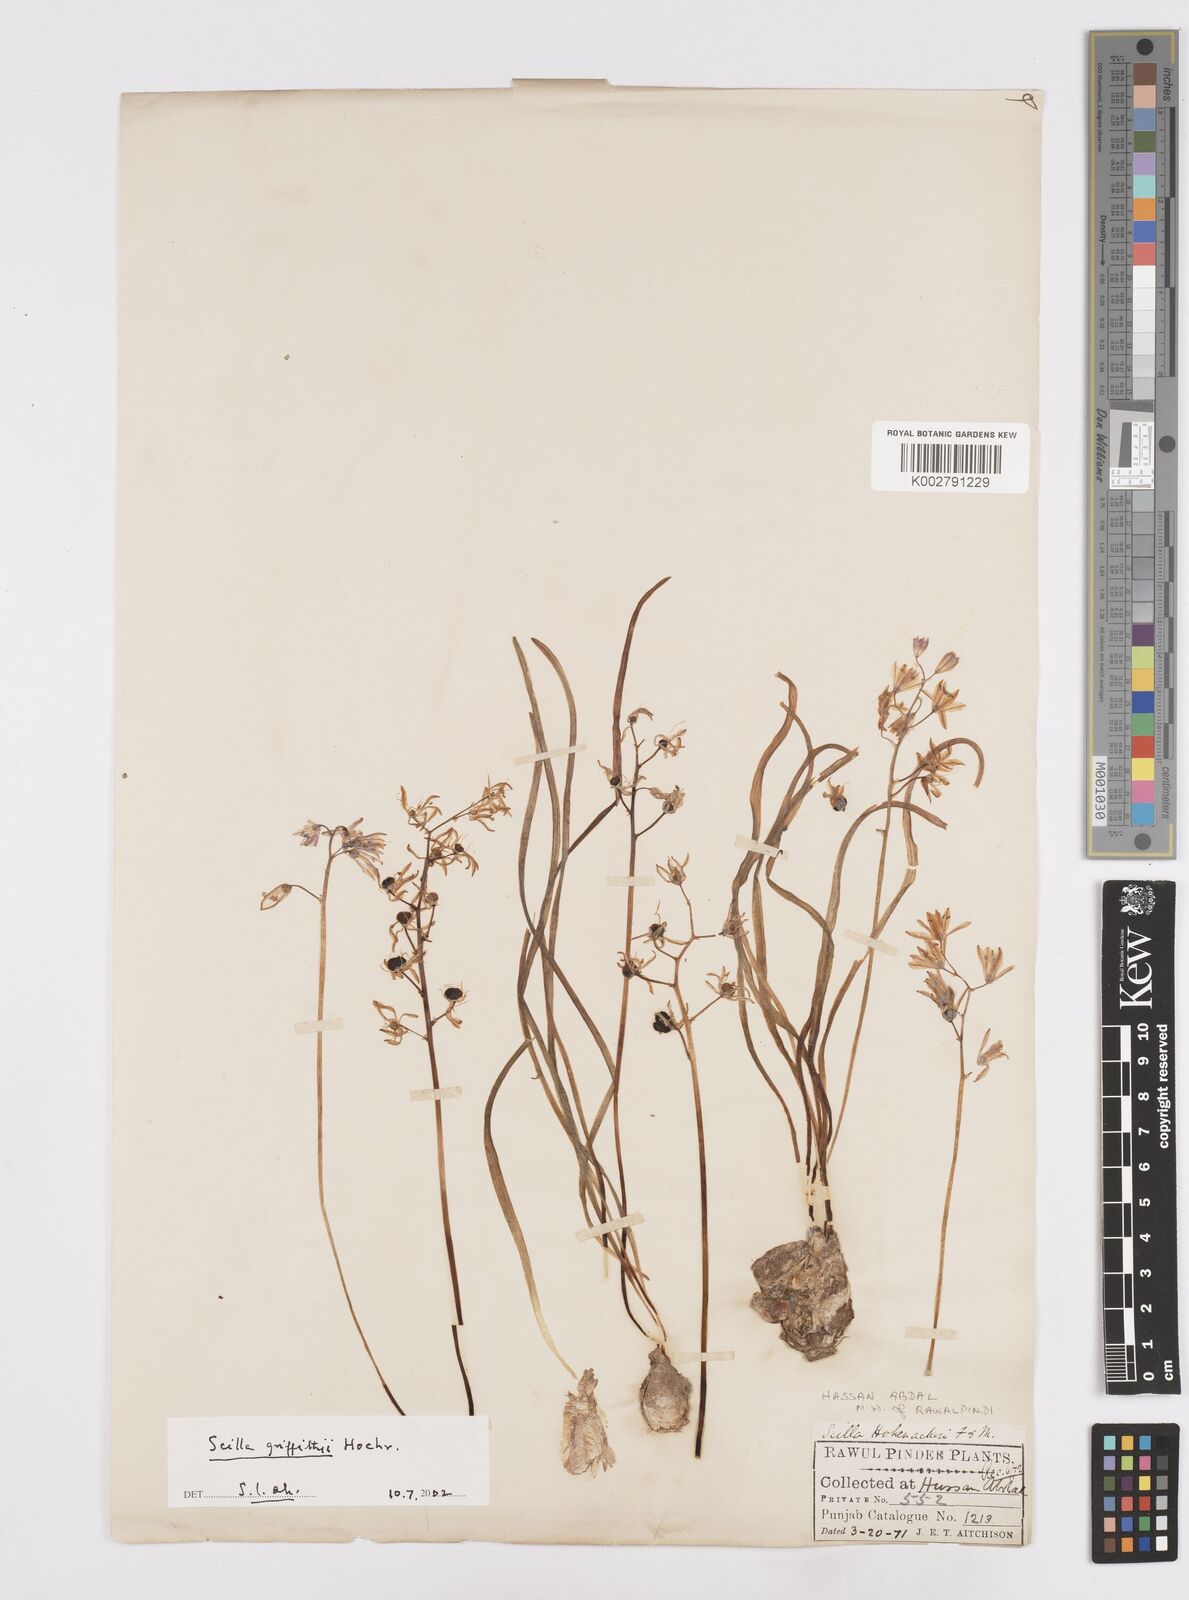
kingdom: Plantae
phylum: Tracheophyta
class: Liliopsida
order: Asparagales
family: Asparagaceae
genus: Scilla
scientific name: Scilla bifolia
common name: Alpine squill
